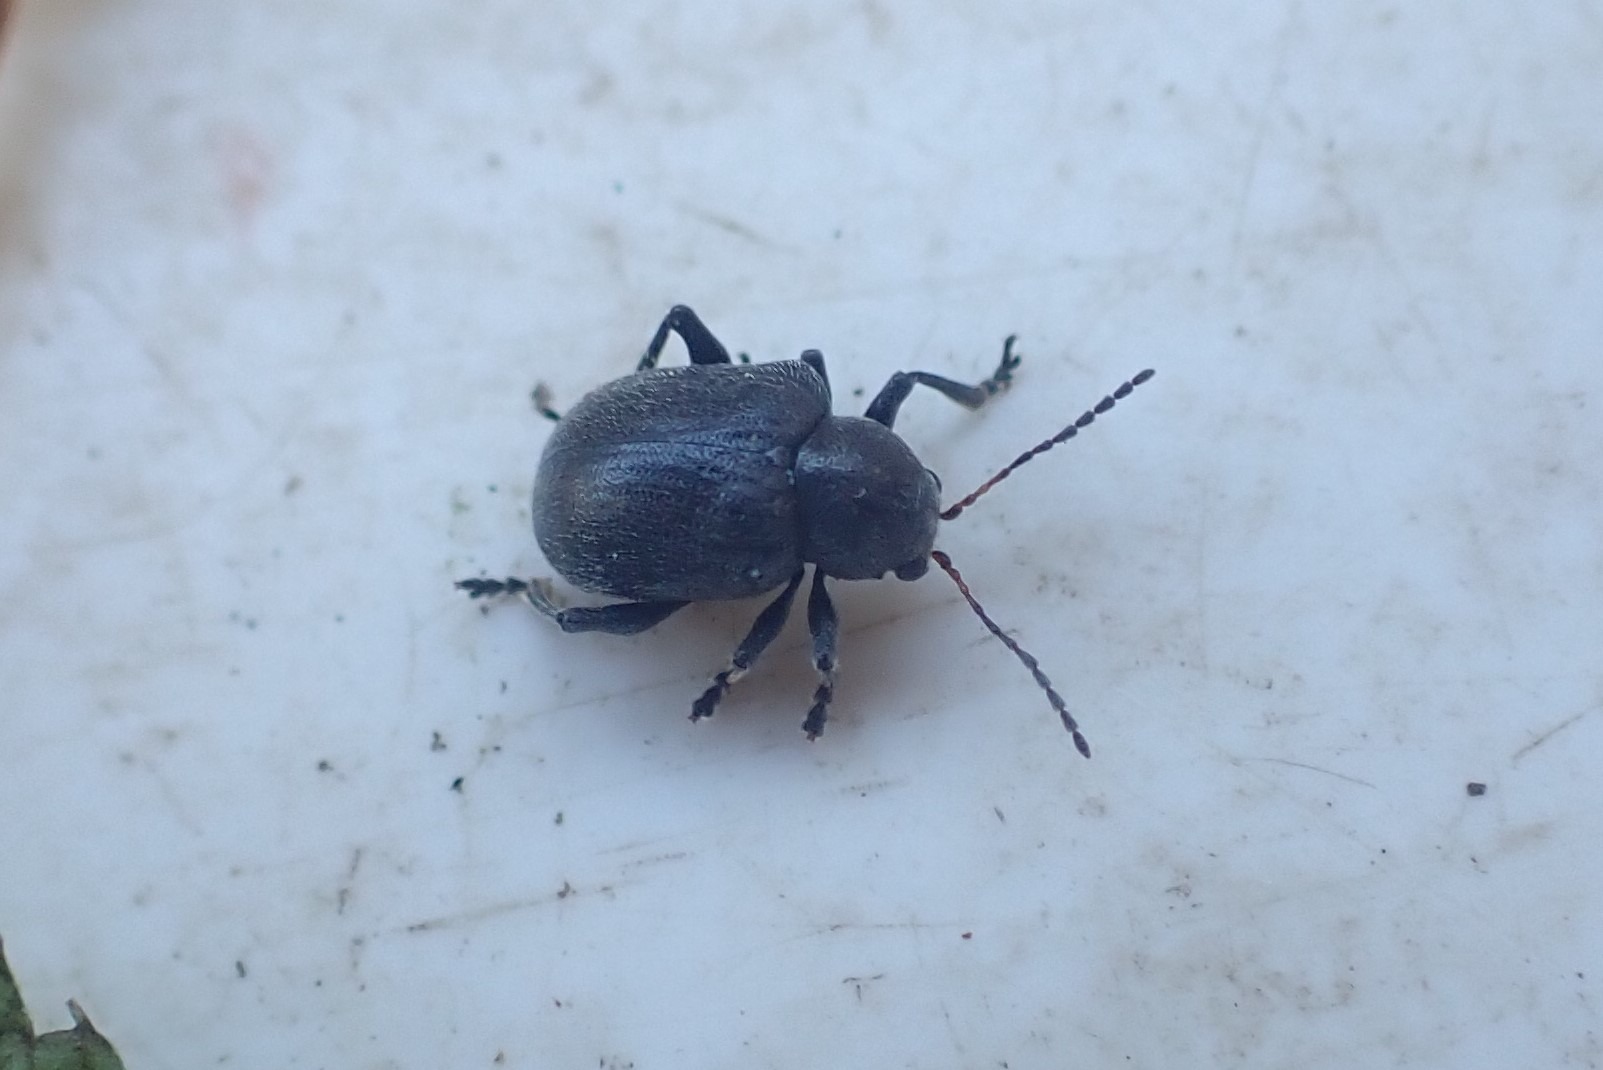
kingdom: Animalia
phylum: Arthropoda
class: Insecta
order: Coleoptera
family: Chrysomelidae
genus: Bromius
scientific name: Bromius obscurus
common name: Gederamsbille
